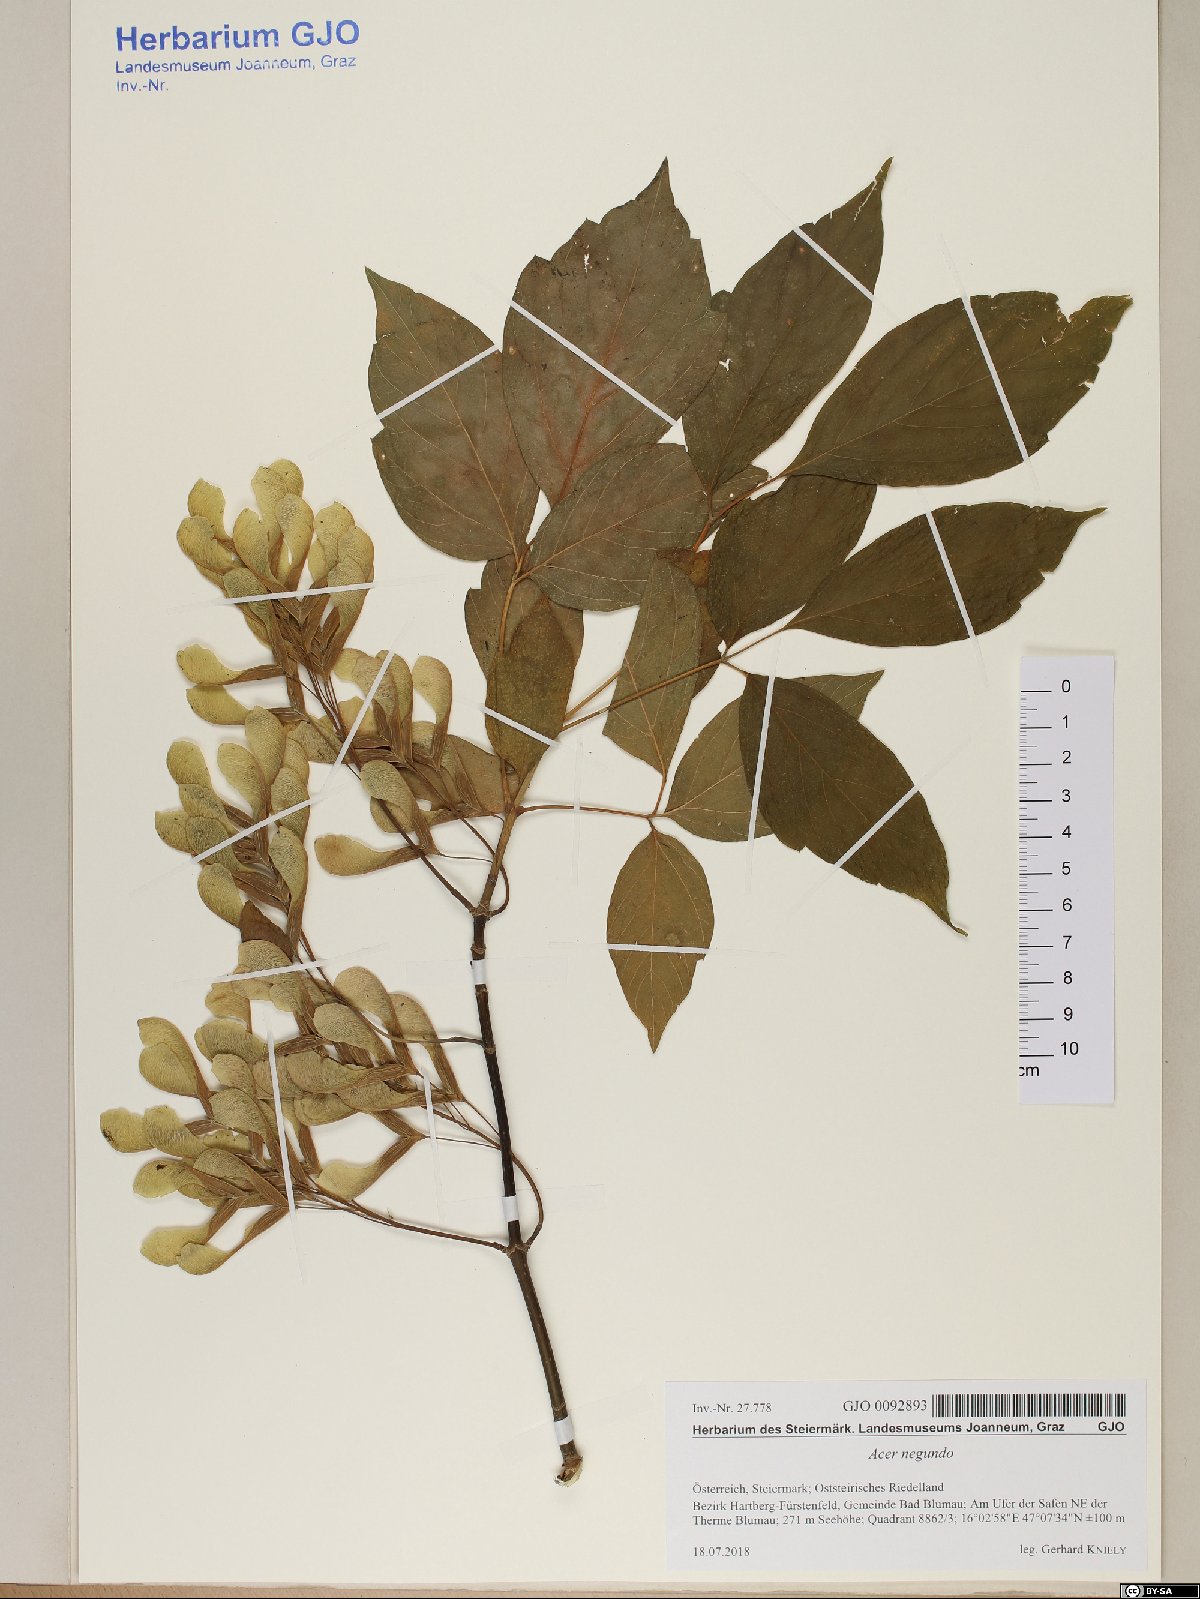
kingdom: Plantae
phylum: Tracheophyta
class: Magnoliopsida
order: Sapindales
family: Sapindaceae
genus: Acer
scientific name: Acer negundo
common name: Ashleaf maple
